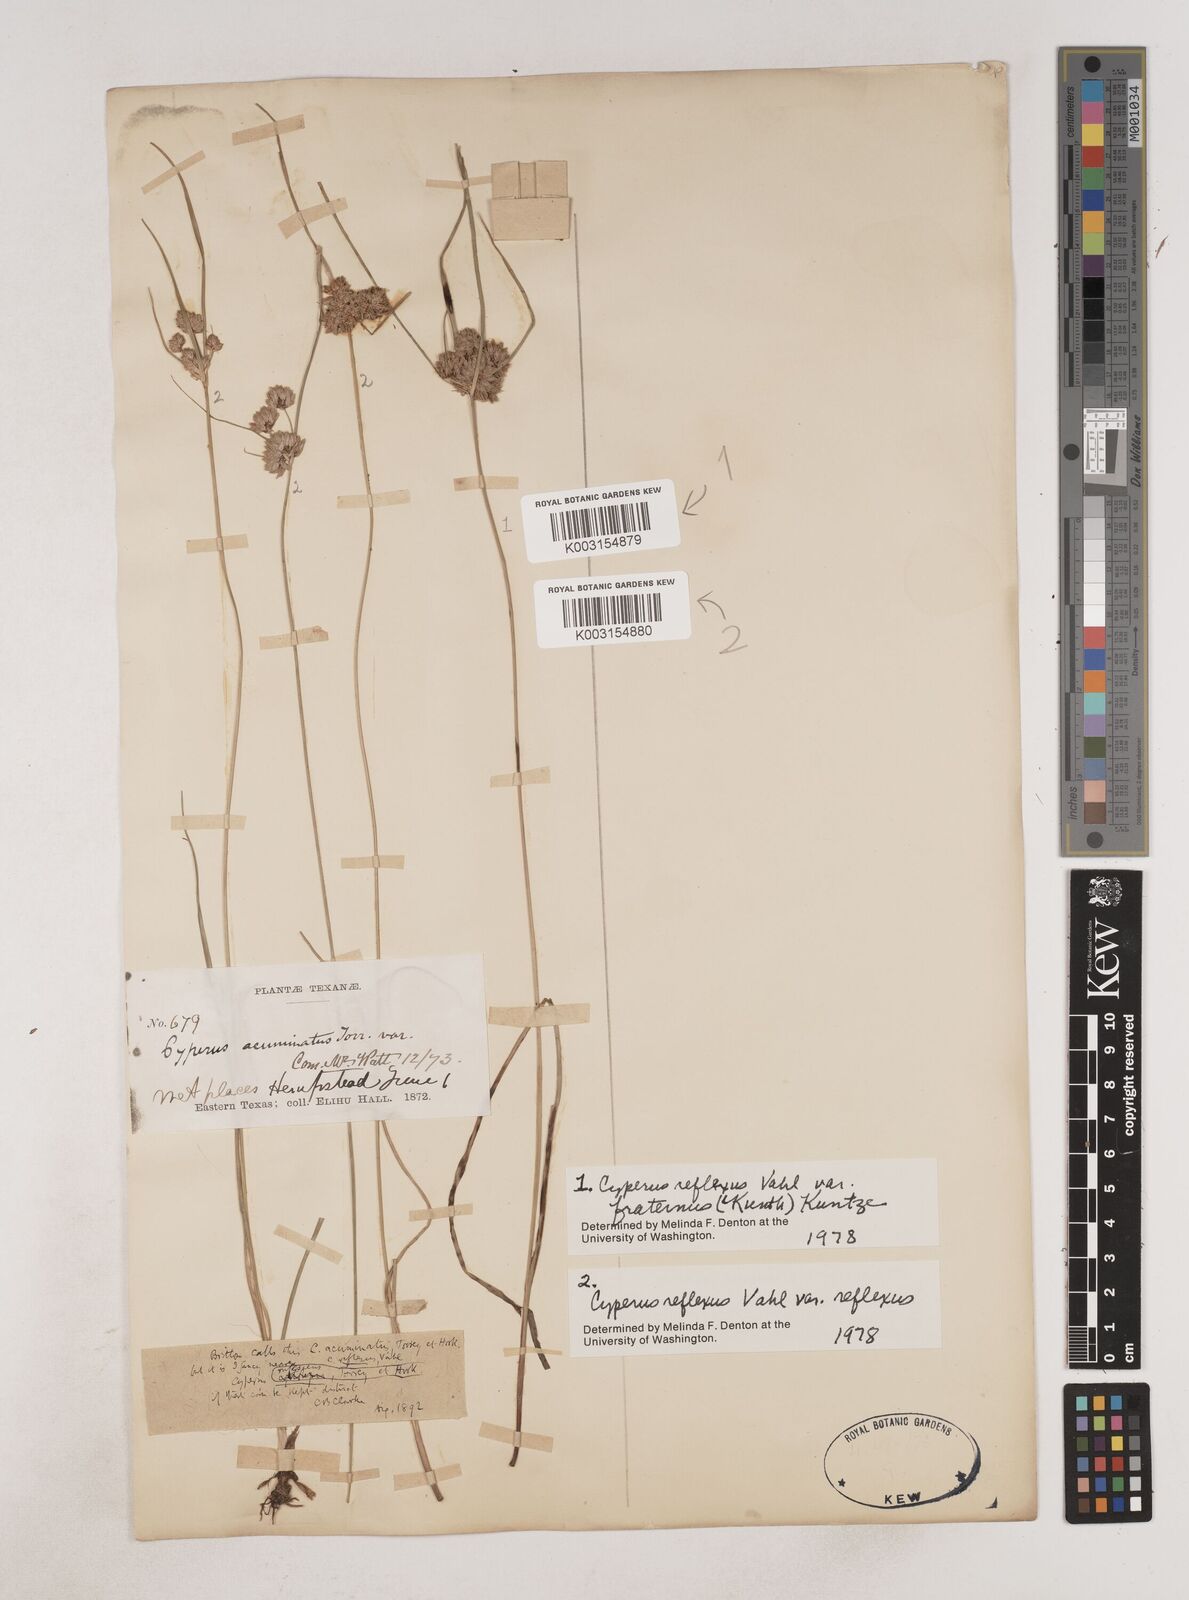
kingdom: Plantae
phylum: Tracheophyta
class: Liliopsida
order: Poales
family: Cyperaceae
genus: Cyperus
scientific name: Cyperus reflexus
